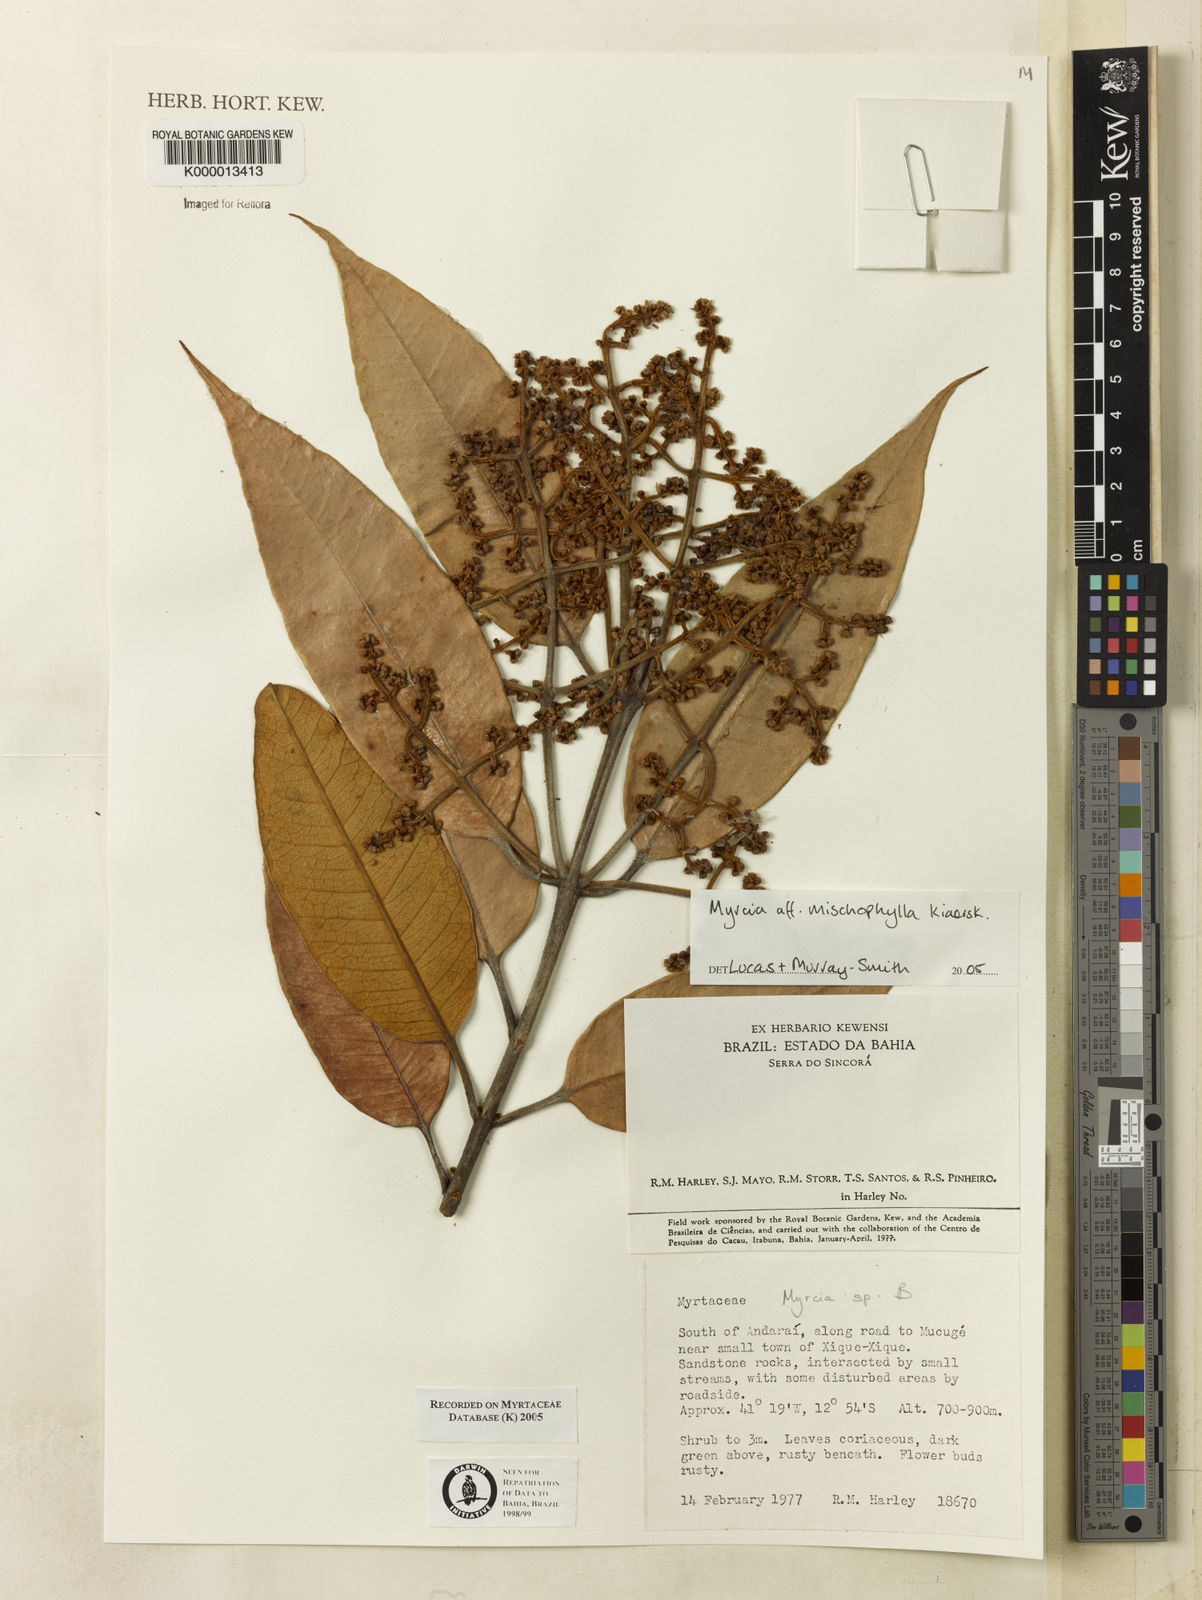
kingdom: Plantae
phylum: Tracheophyta
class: Magnoliopsida
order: Myrtales
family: Myrtaceae
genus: Myrcia
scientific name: Myrcia
